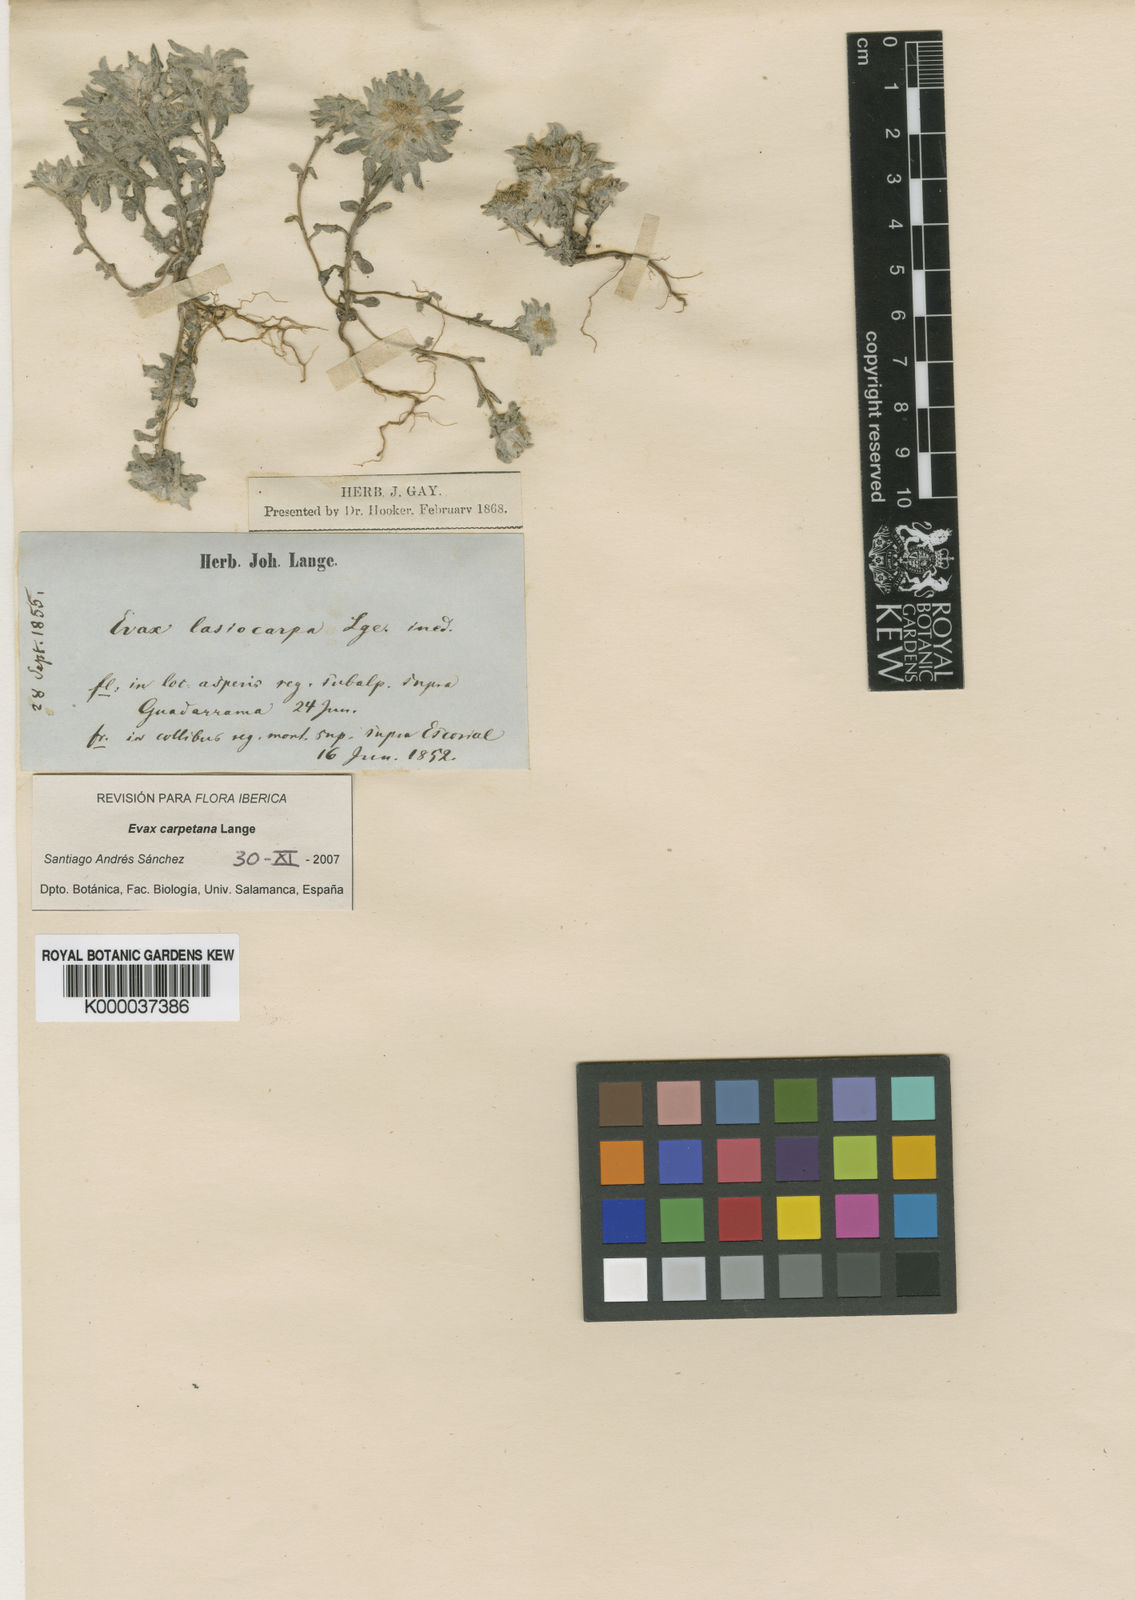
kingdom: Plantae
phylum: Tracheophyta
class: Magnoliopsida
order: Asterales
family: Asteraceae
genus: Filago
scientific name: Filago
